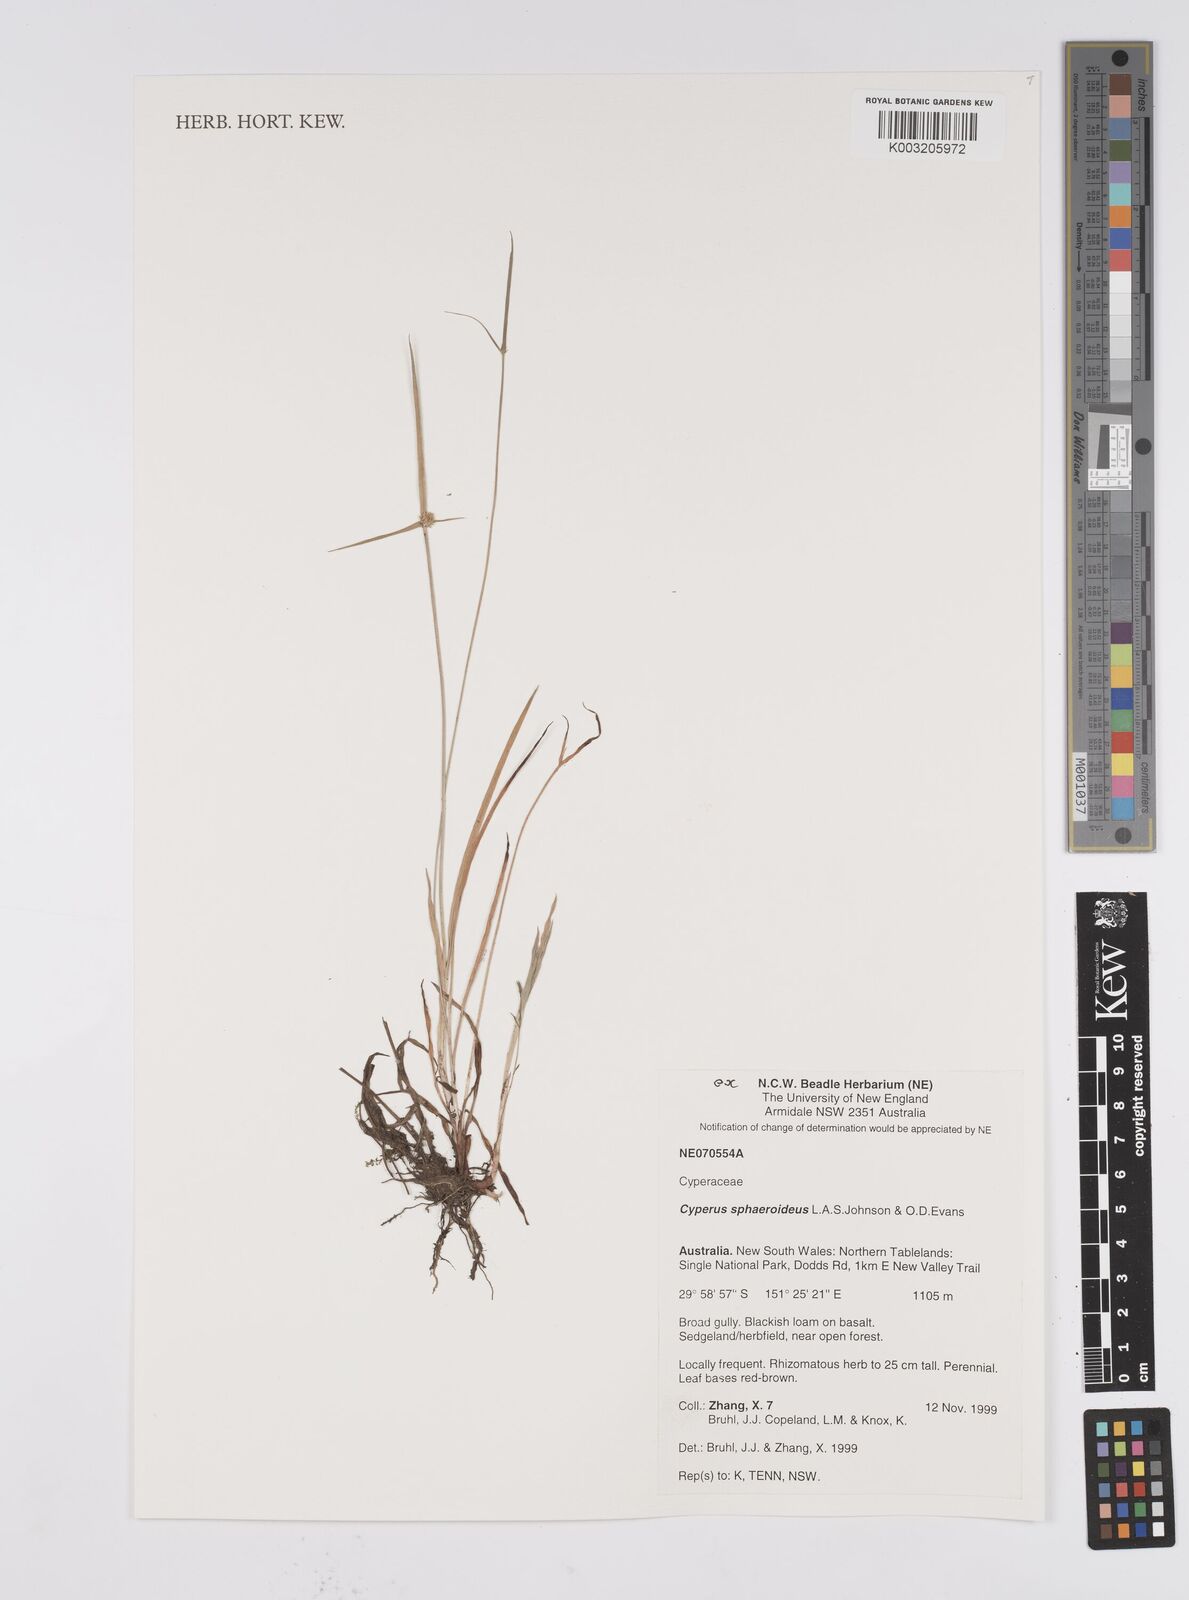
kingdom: Plantae
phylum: Tracheophyta
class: Liliopsida
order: Poales
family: Cyperaceae
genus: Cyperus
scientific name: Cyperus longus
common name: Galingale
